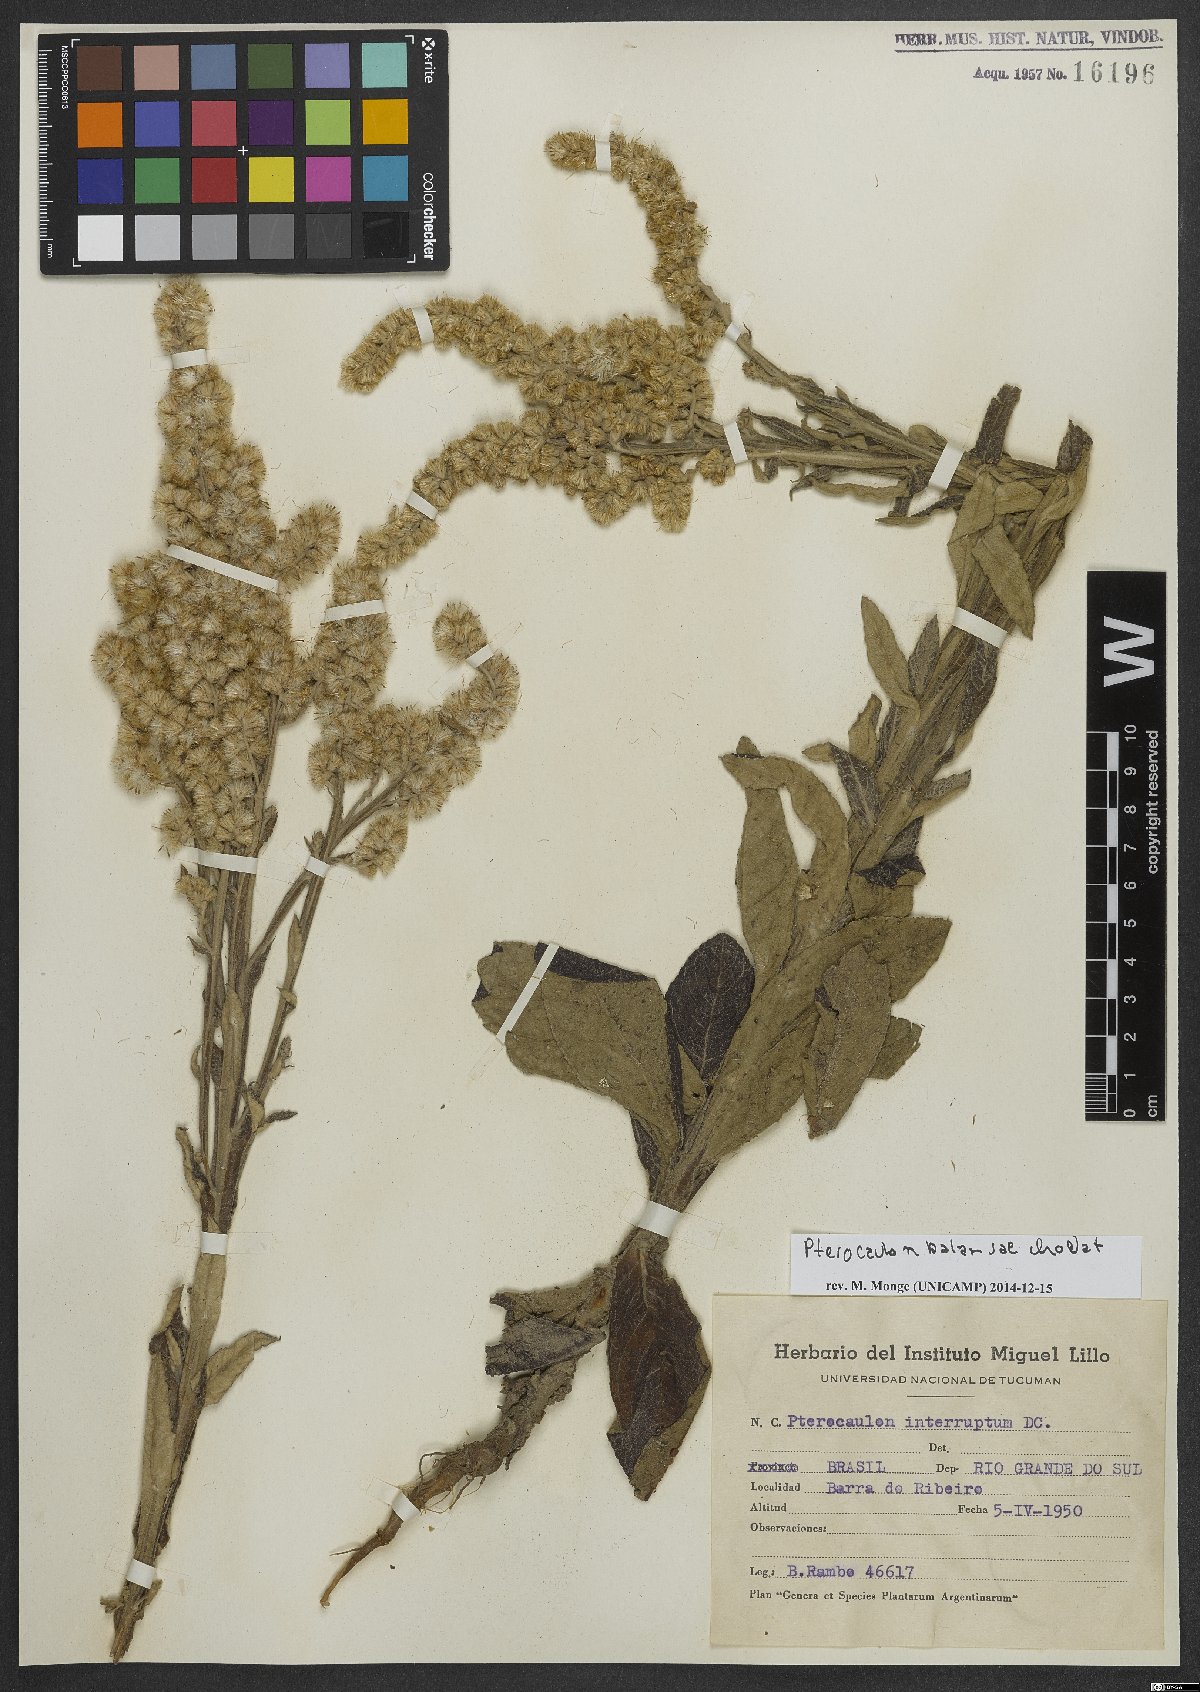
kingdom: Plantae
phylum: Tracheophyta
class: Magnoliopsida
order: Asterales
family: Asteraceae
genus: Pterocaulon
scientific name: Pterocaulon balansae
